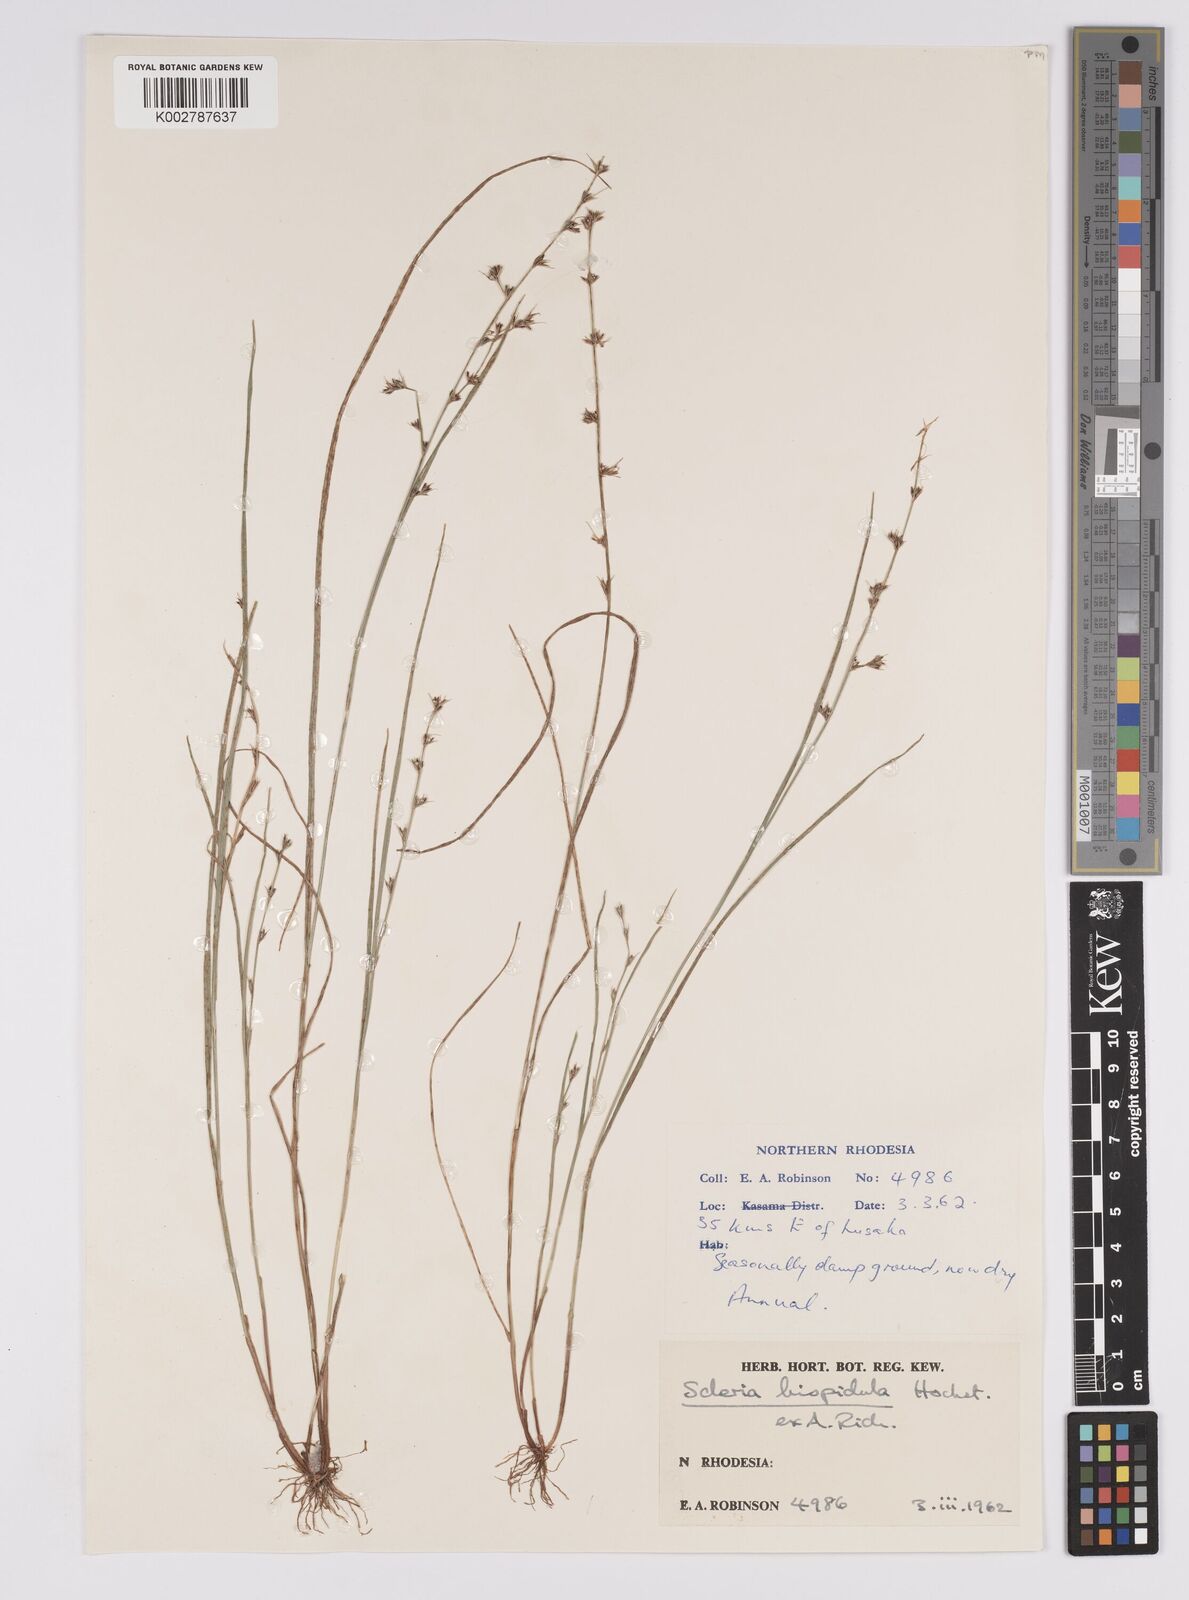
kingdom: Plantae
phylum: Tracheophyta
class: Liliopsida
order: Poales
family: Cyperaceae
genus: Scleria
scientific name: Scleria hispidula
